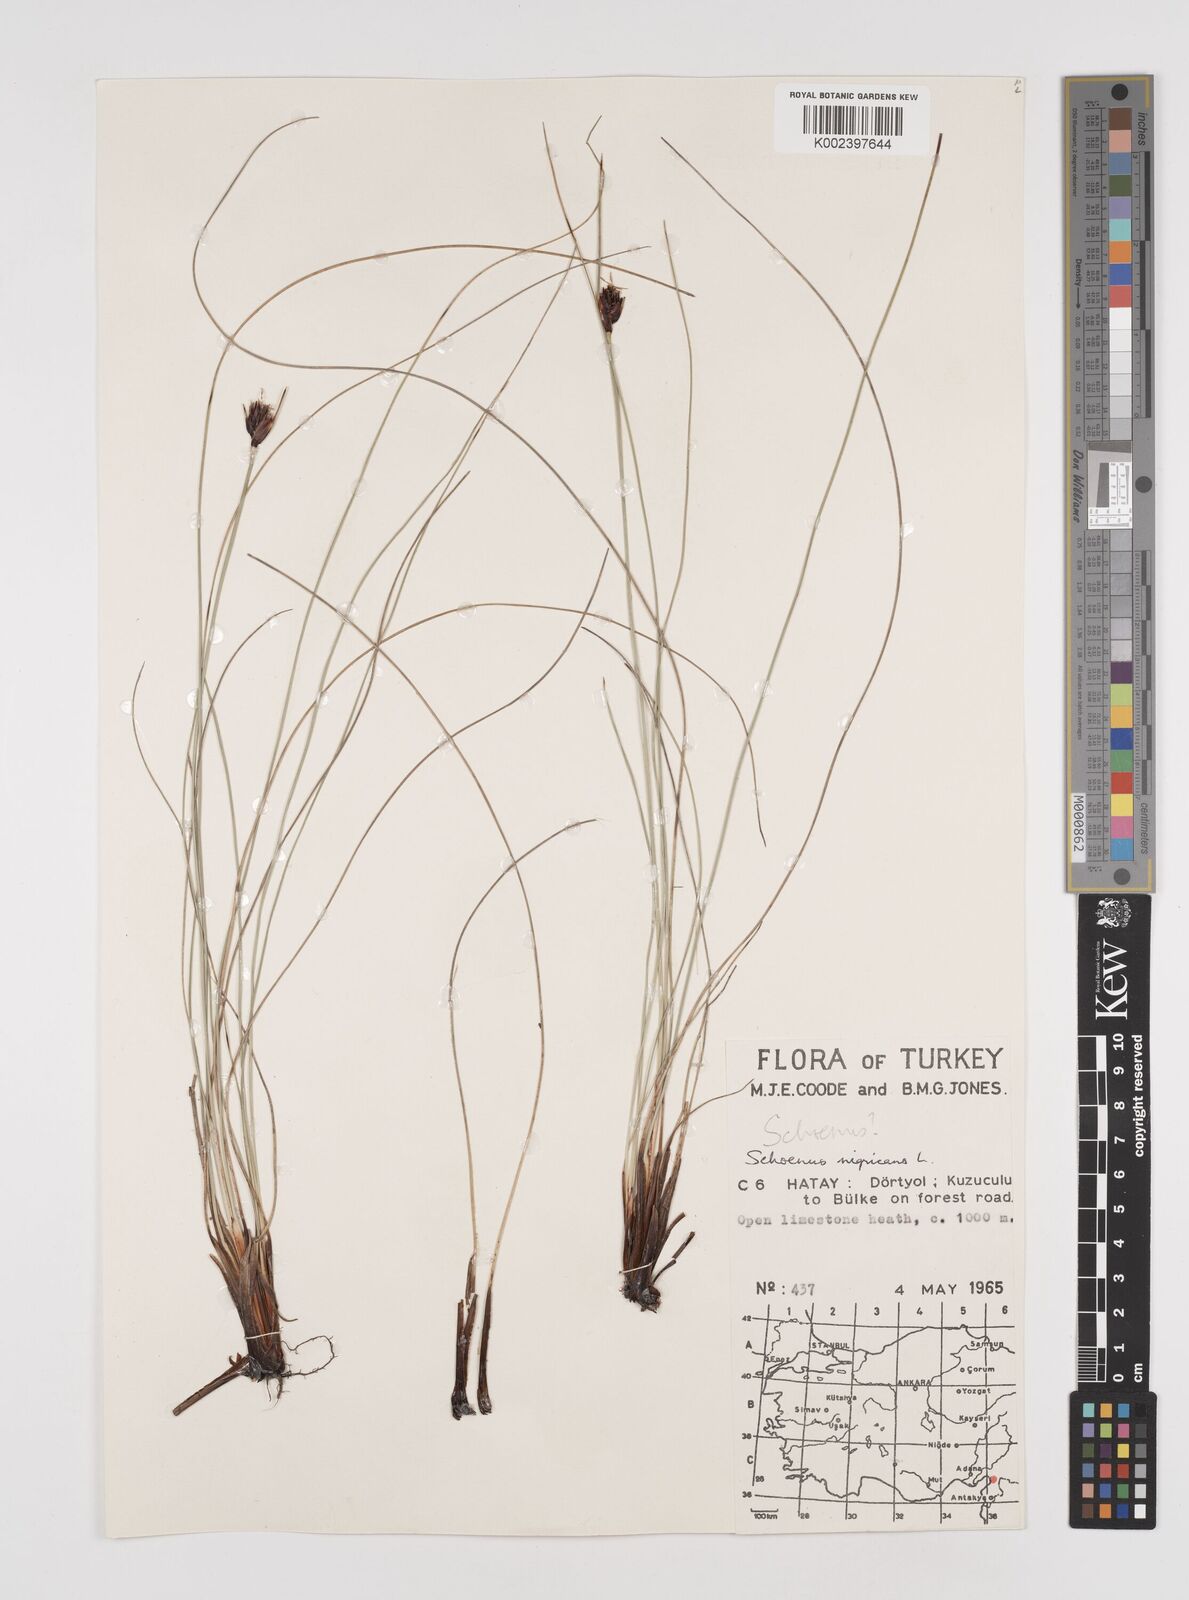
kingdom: Plantae
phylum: Tracheophyta
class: Liliopsida
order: Poales
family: Cyperaceae
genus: Schoenus
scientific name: Schoenus nigricans
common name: Black bog-rush
